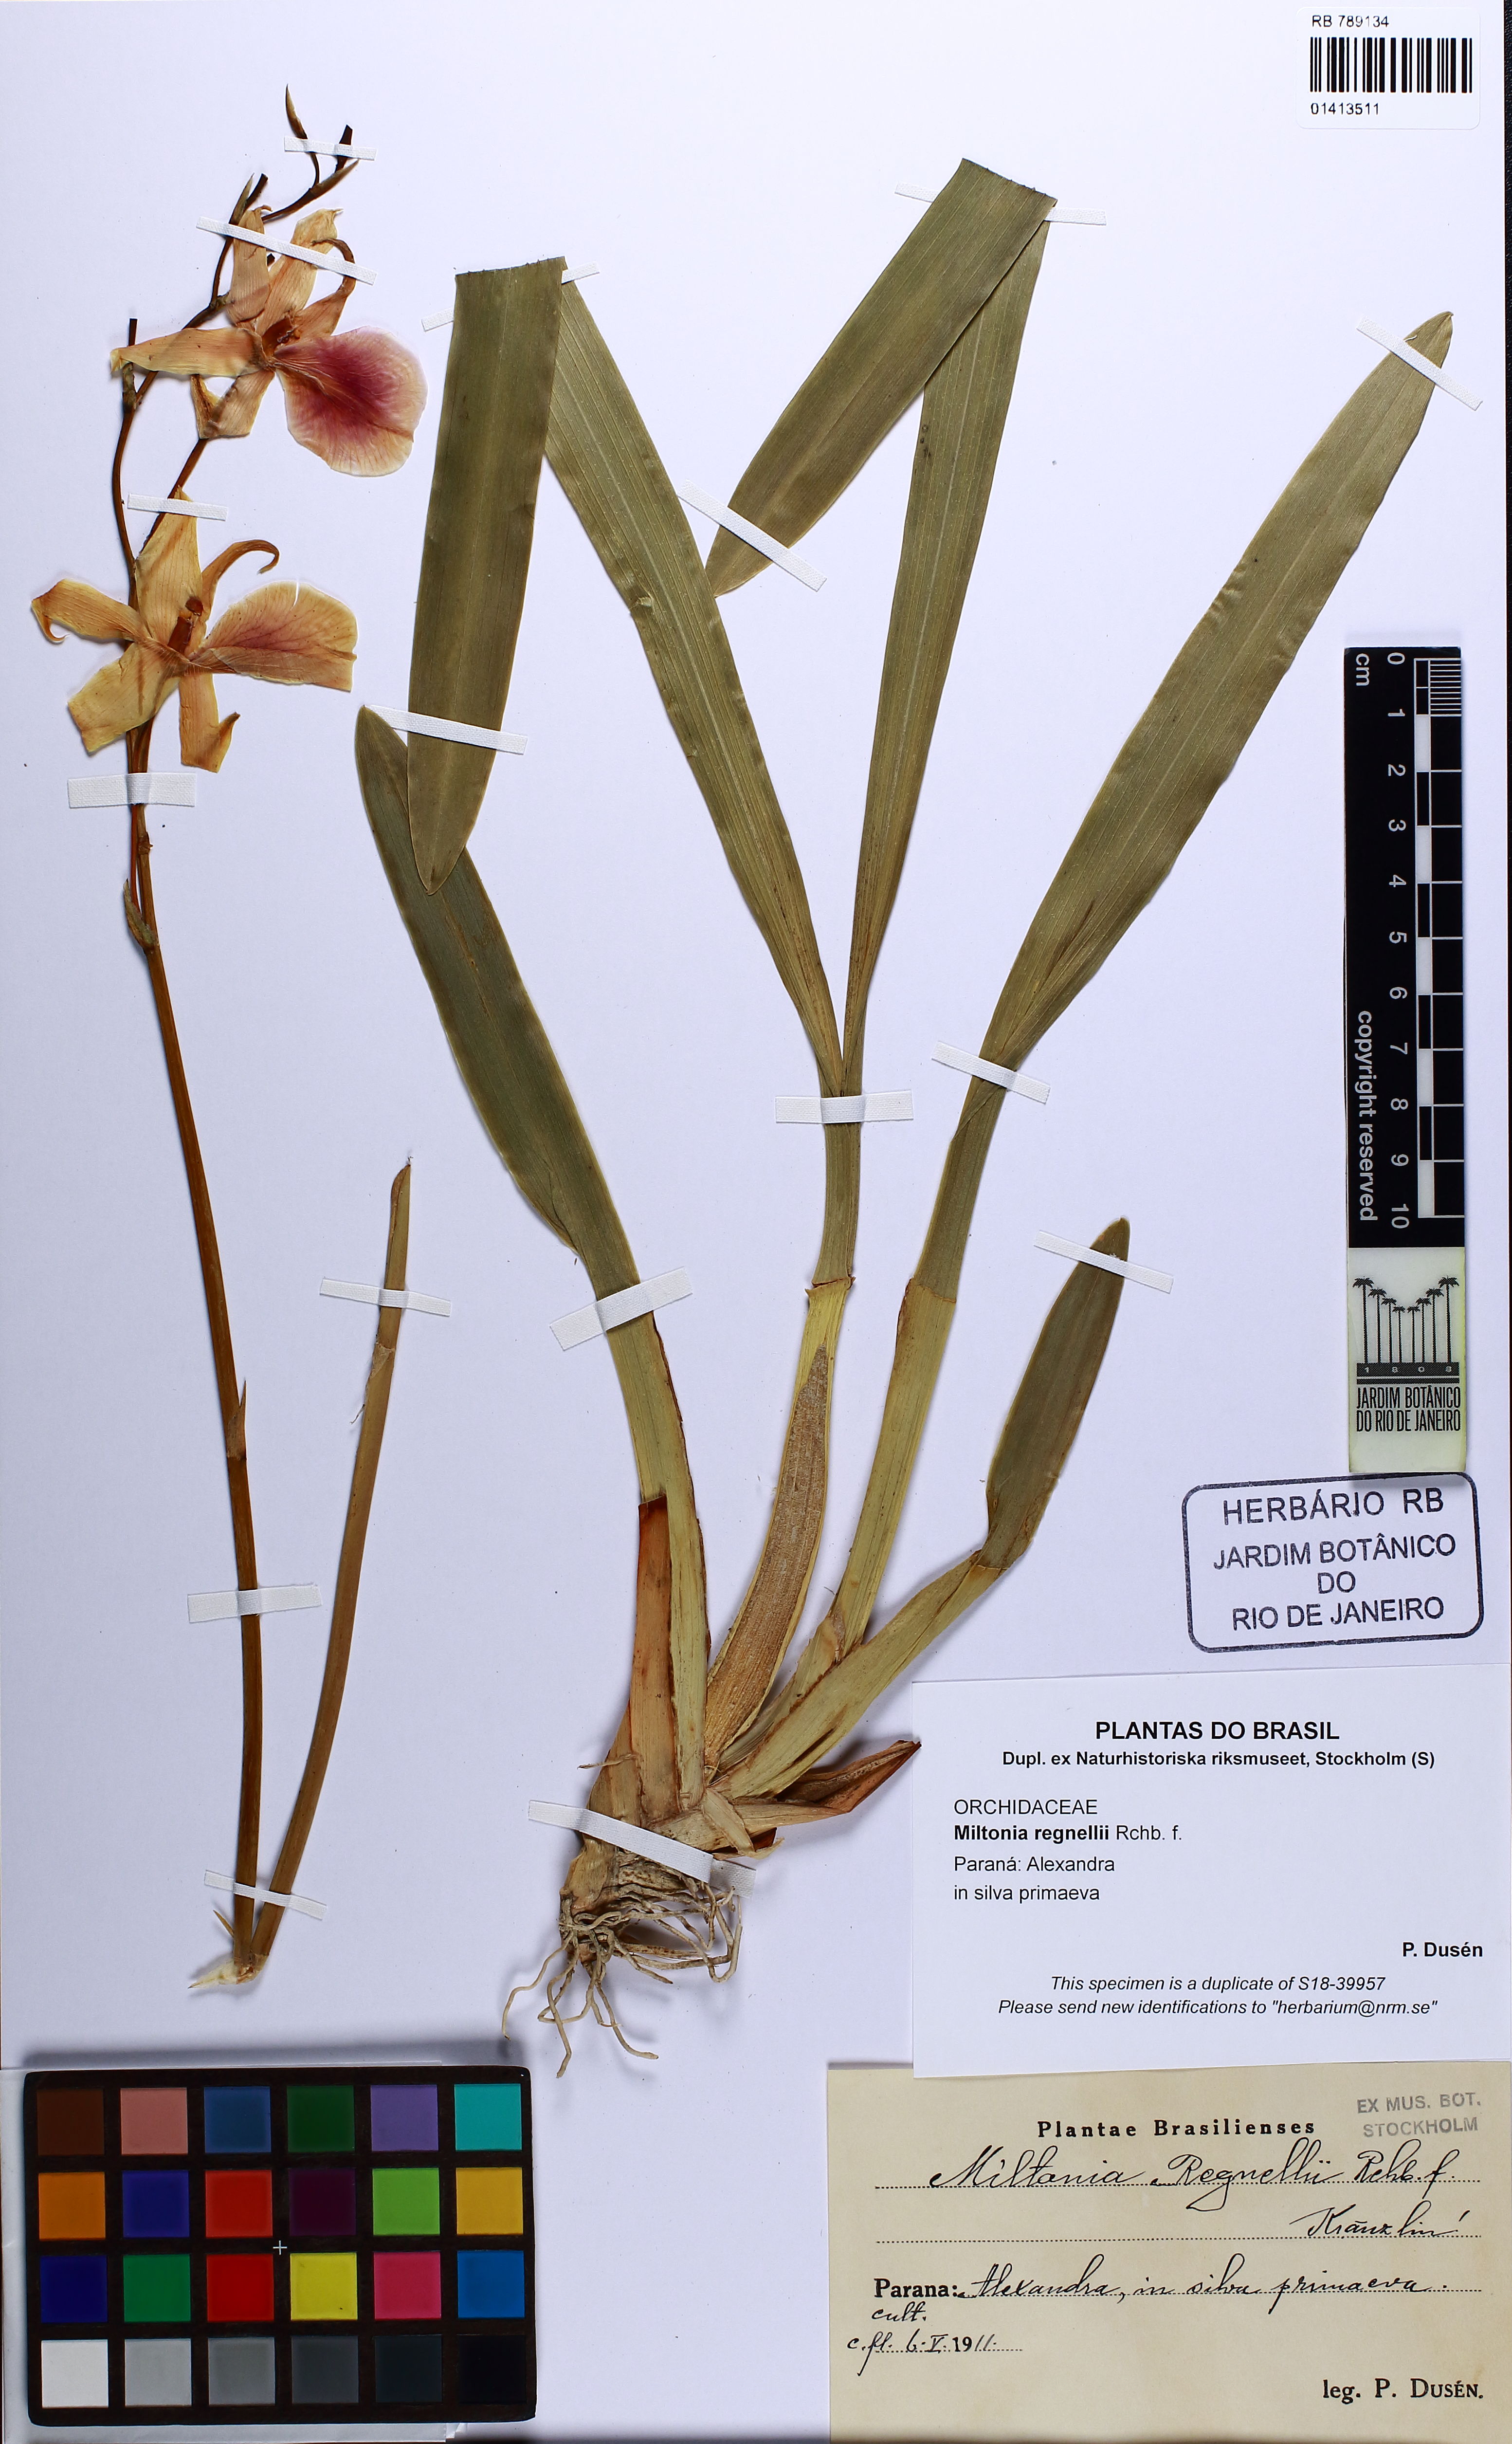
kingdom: Plantae
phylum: Tracheophyta
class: Liliopsida
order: Asparagales
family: Orchidaceae
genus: Miltonia
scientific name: Miltonia regnellii
